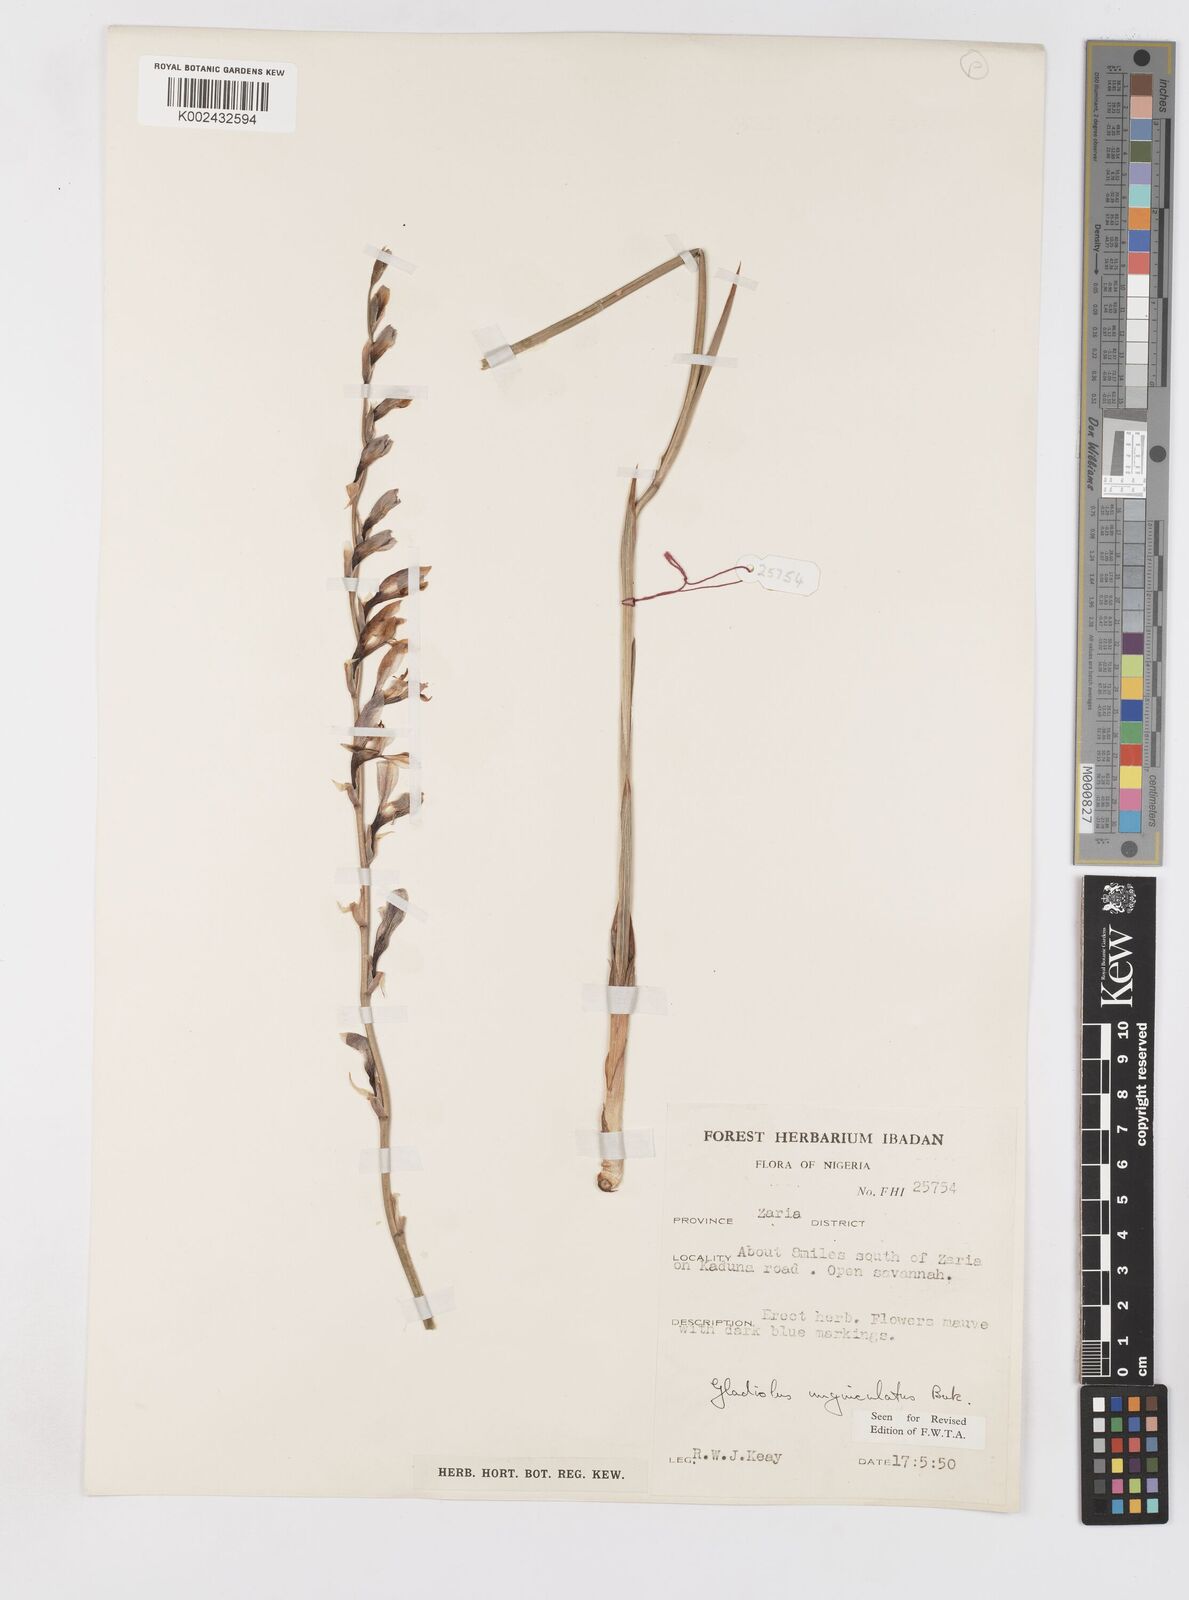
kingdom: Plantae
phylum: Tracheophyta
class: Liliopsida
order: Asparagales
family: Iridaceae
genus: Gladiolus
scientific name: Gladiolus unguiculatus
